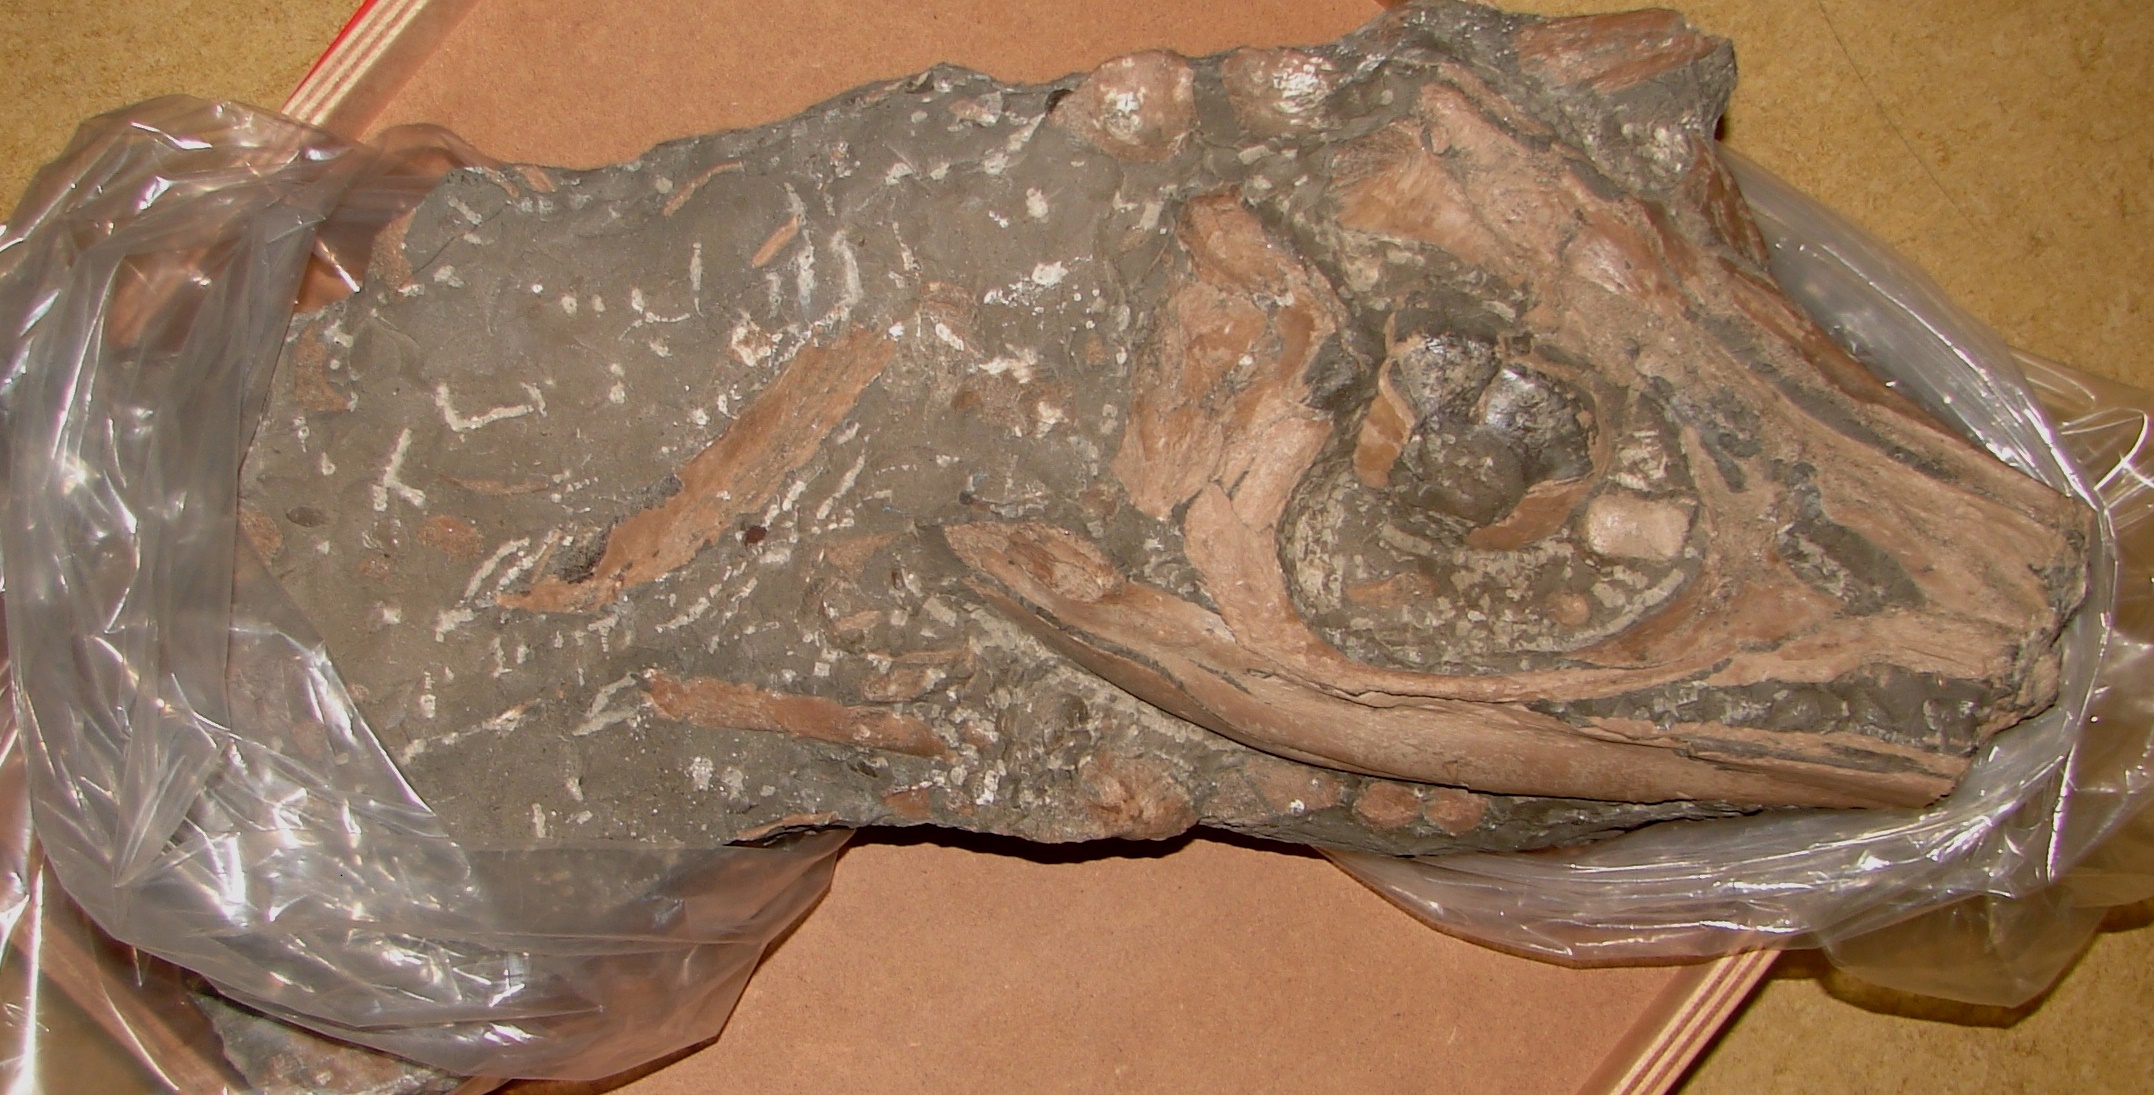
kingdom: Animalia
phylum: Chordata
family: Stenopterygiidae
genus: Stenopterygius
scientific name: Stenopterygius
